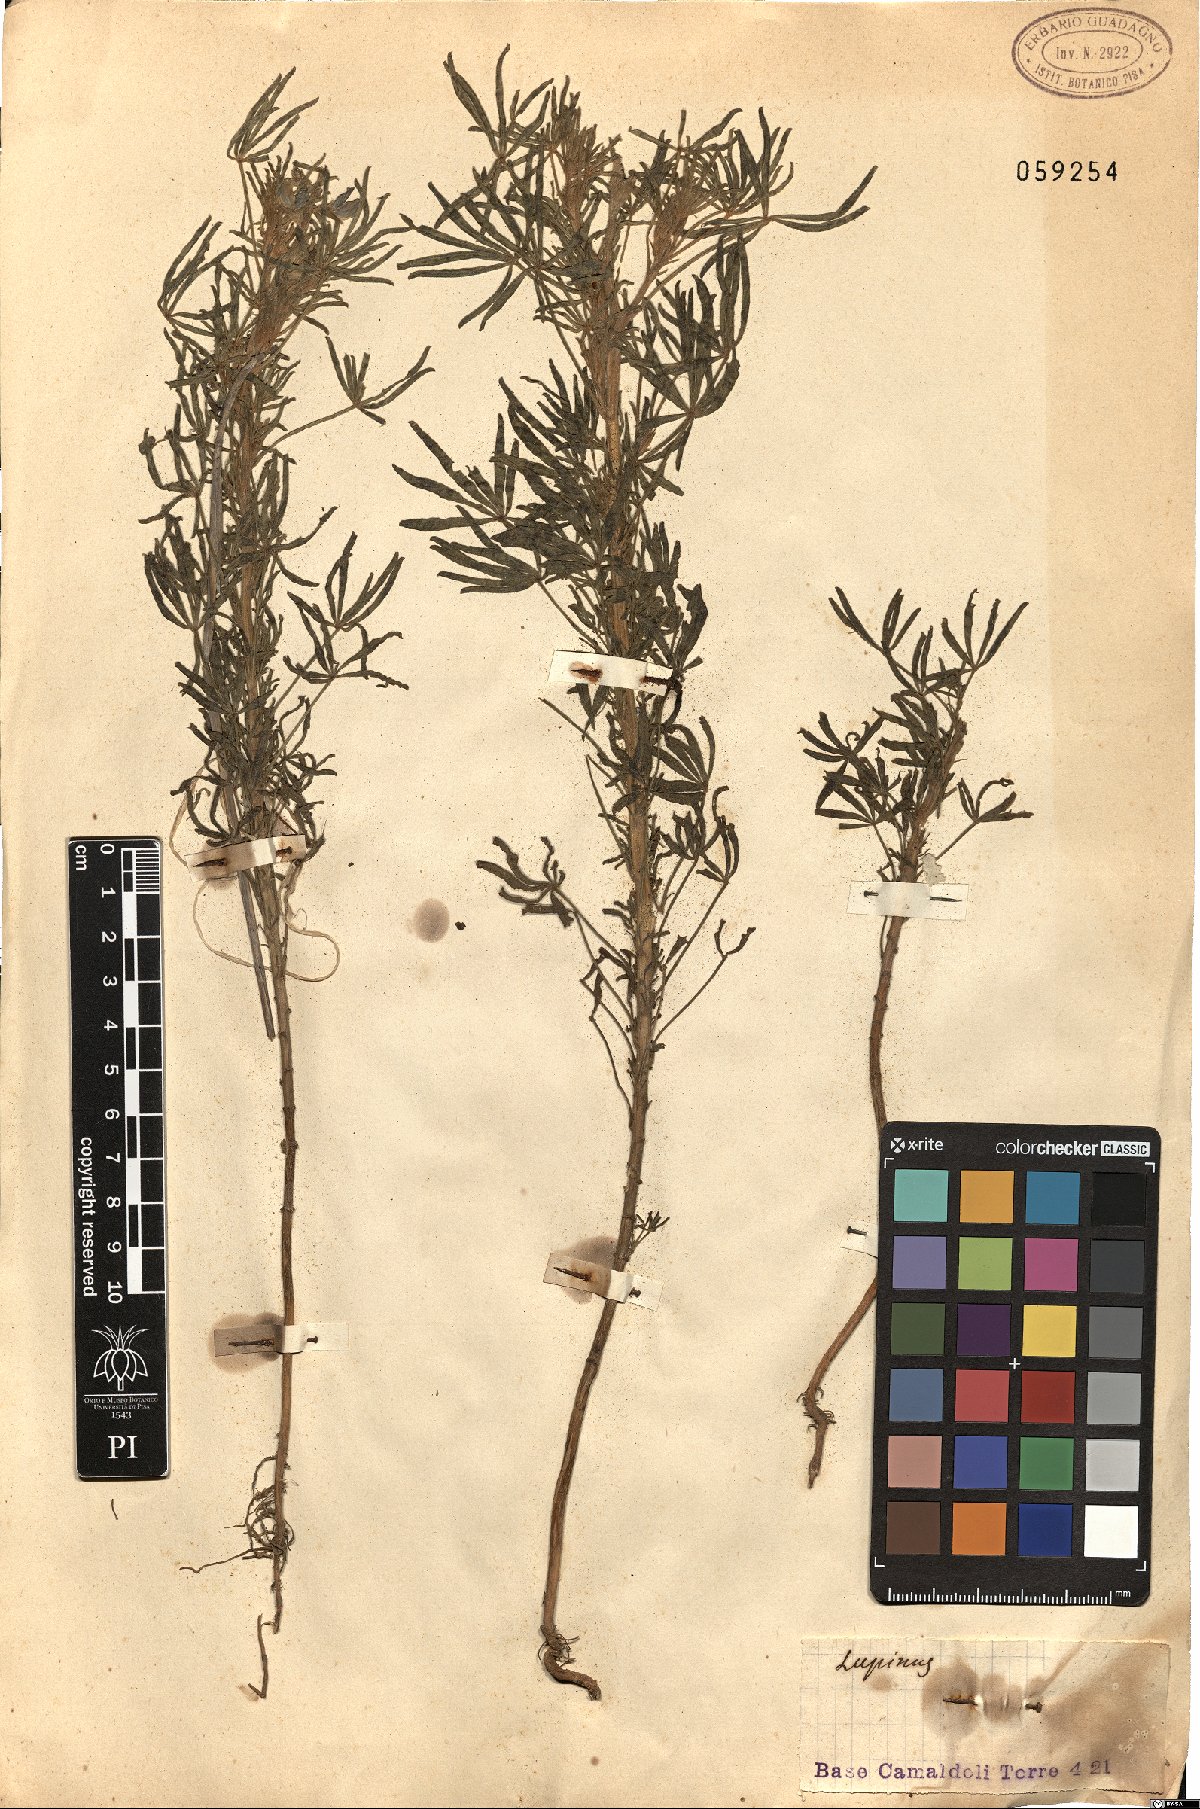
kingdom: Plantae
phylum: Tracheophyta
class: Magnoliopsida
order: Fabales
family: Fabaceae
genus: Lupinus
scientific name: Lupinus
